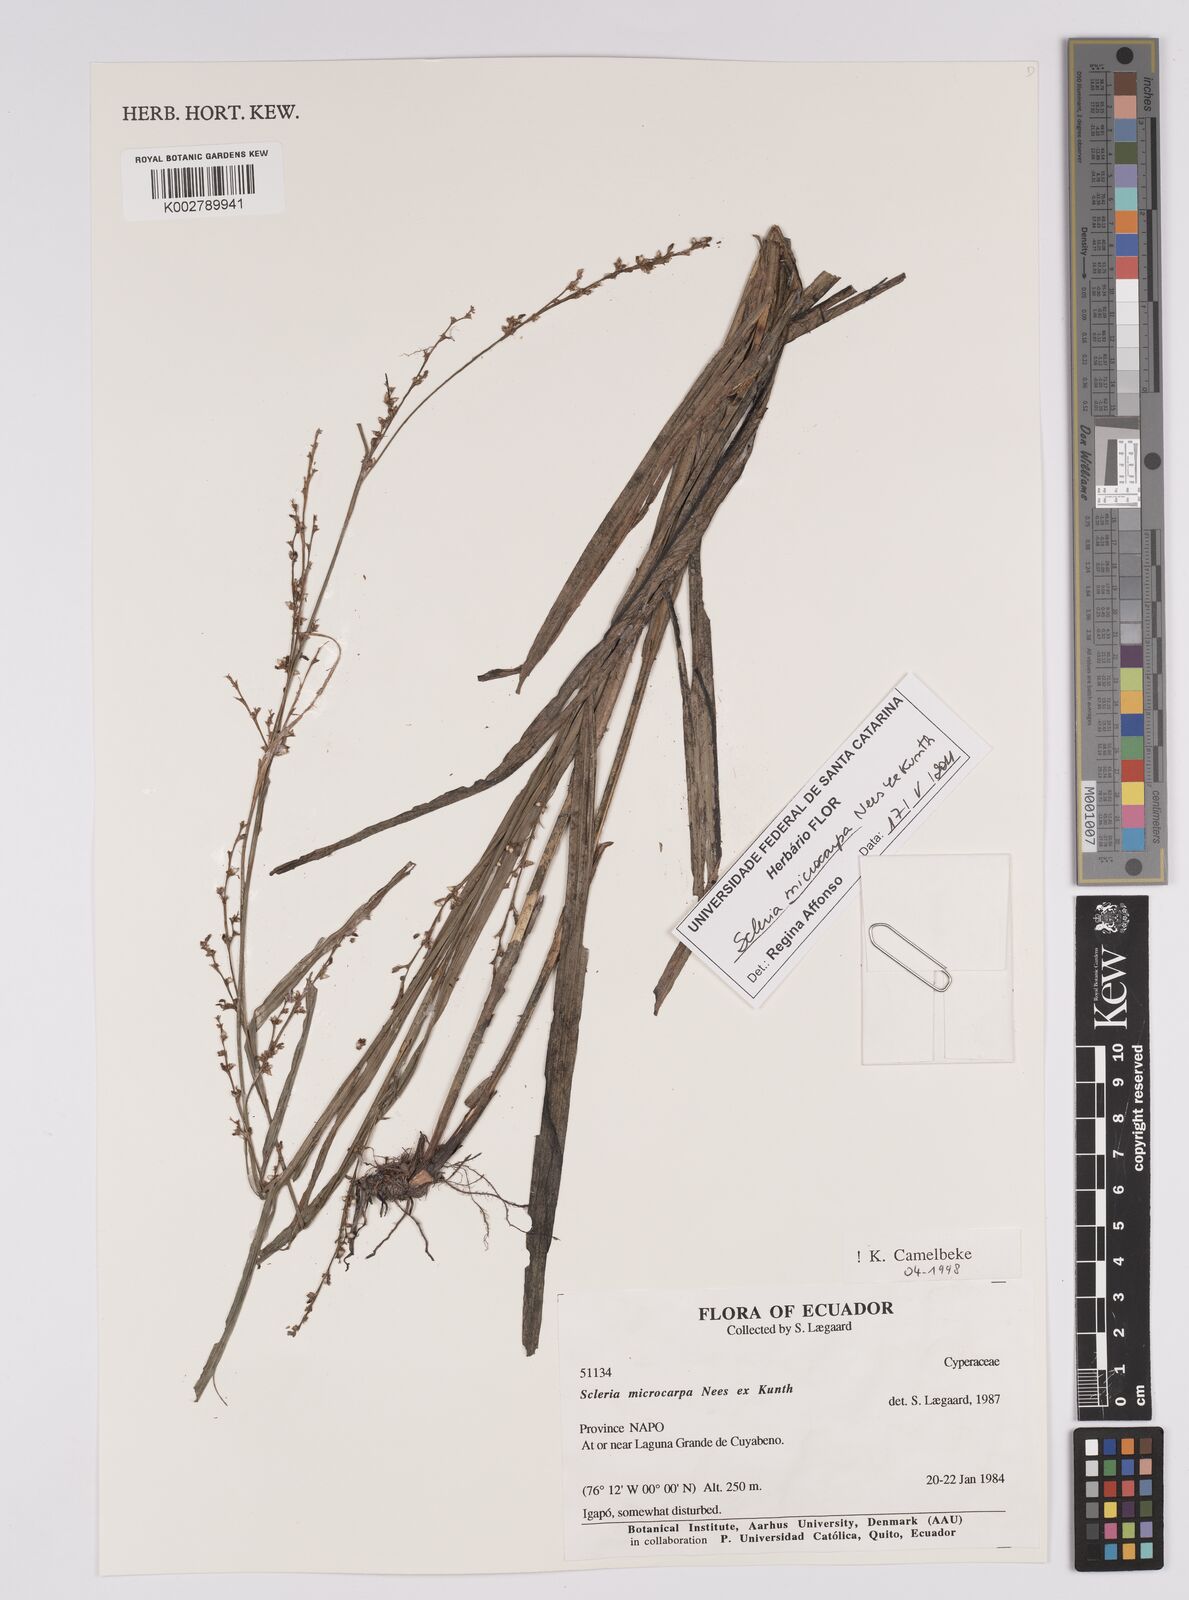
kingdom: Plantae
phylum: Tracheophyta
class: Liliopsida
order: Poales
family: Cyperaceae
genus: Scleria
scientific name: Scleria microcarpa
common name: Tropical nutrush
